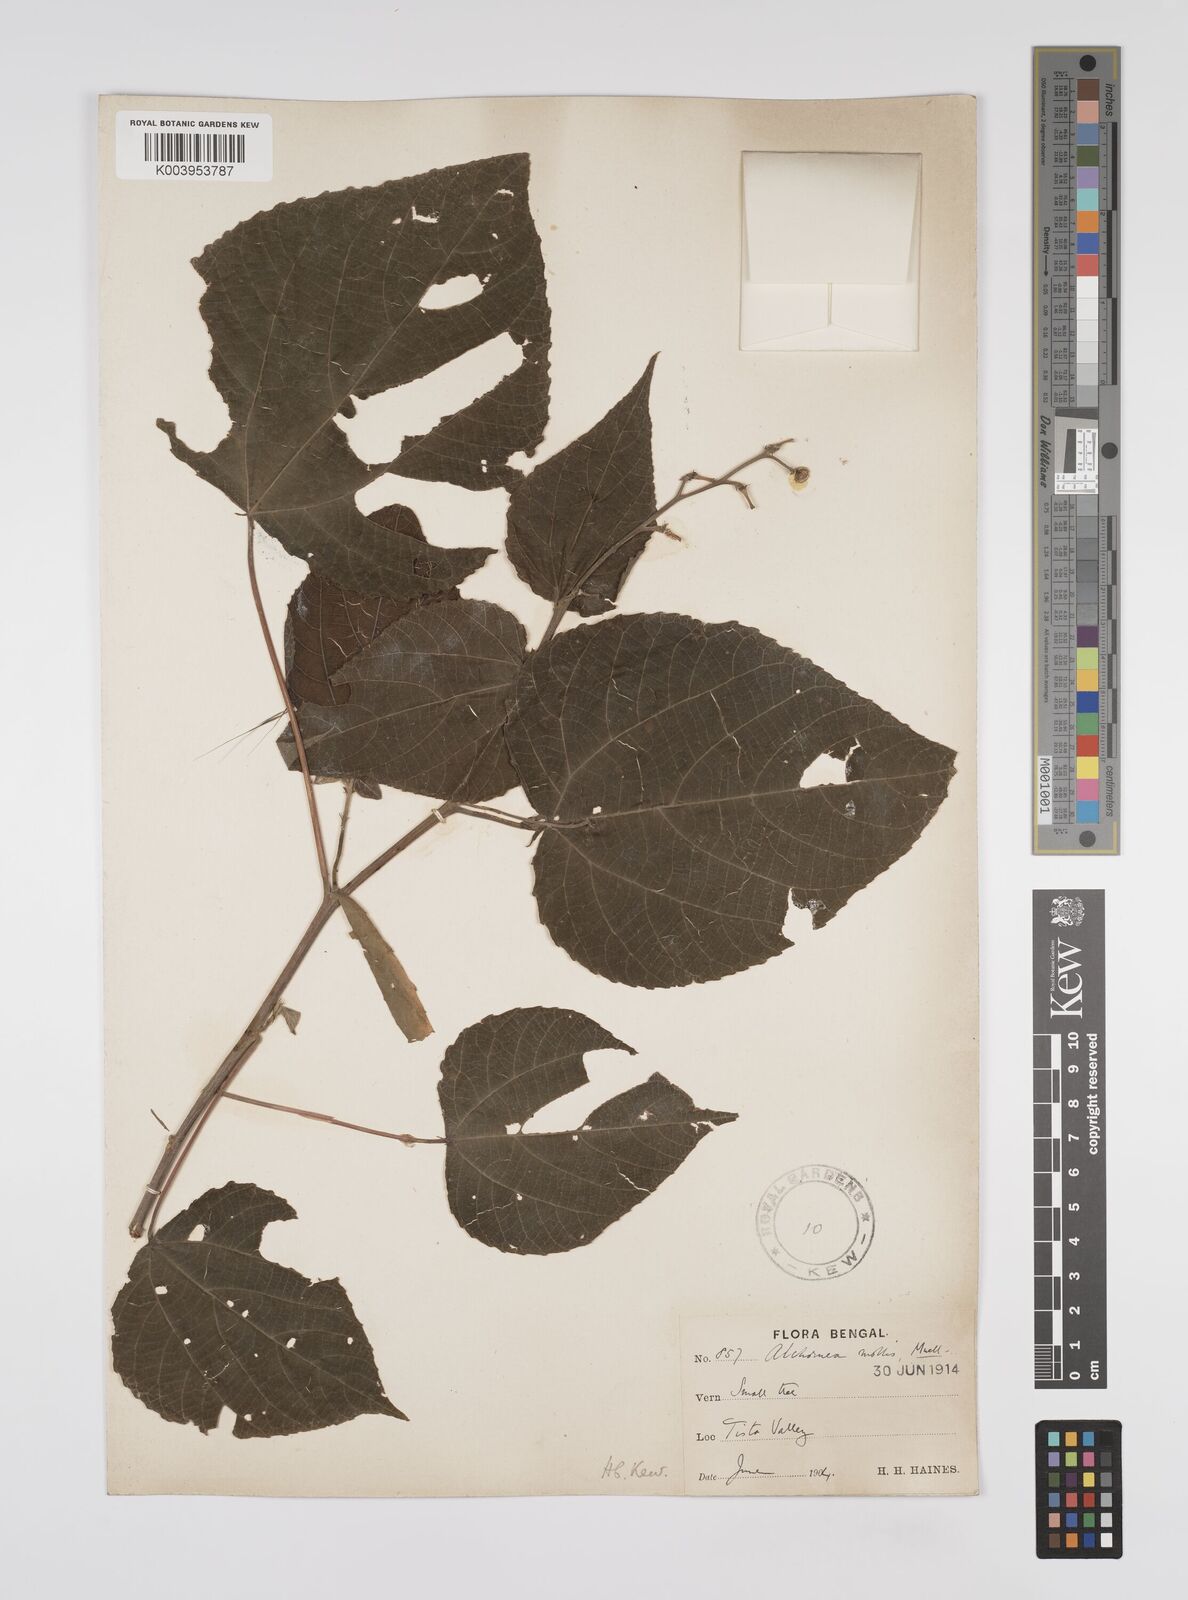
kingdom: Plantae
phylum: Tracheophyta
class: Magnoliopsida
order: Malpighiales
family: Euphorbiaceae
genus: Alchornea
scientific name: Alchornea mollis
